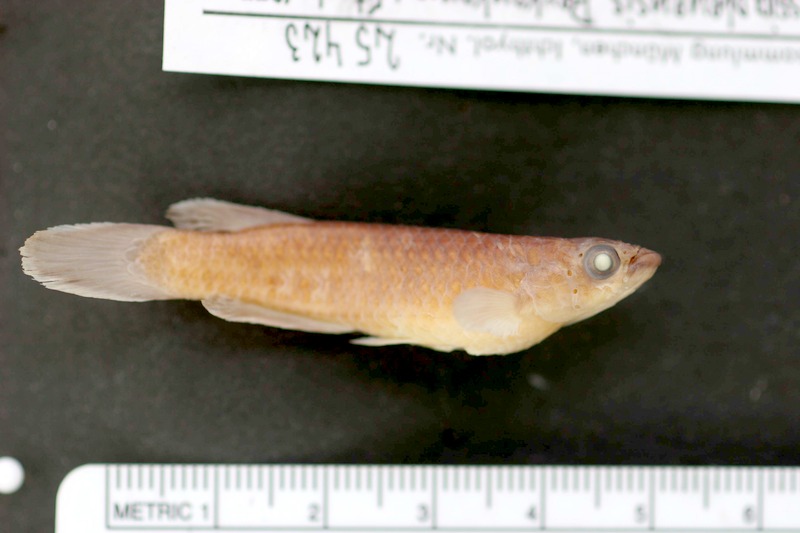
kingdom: Animalia
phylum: Chordata
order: Cyprinodontiformes
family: Nothobranchiidae
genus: Epiplatys
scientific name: Epiplatys olbrechtsi
